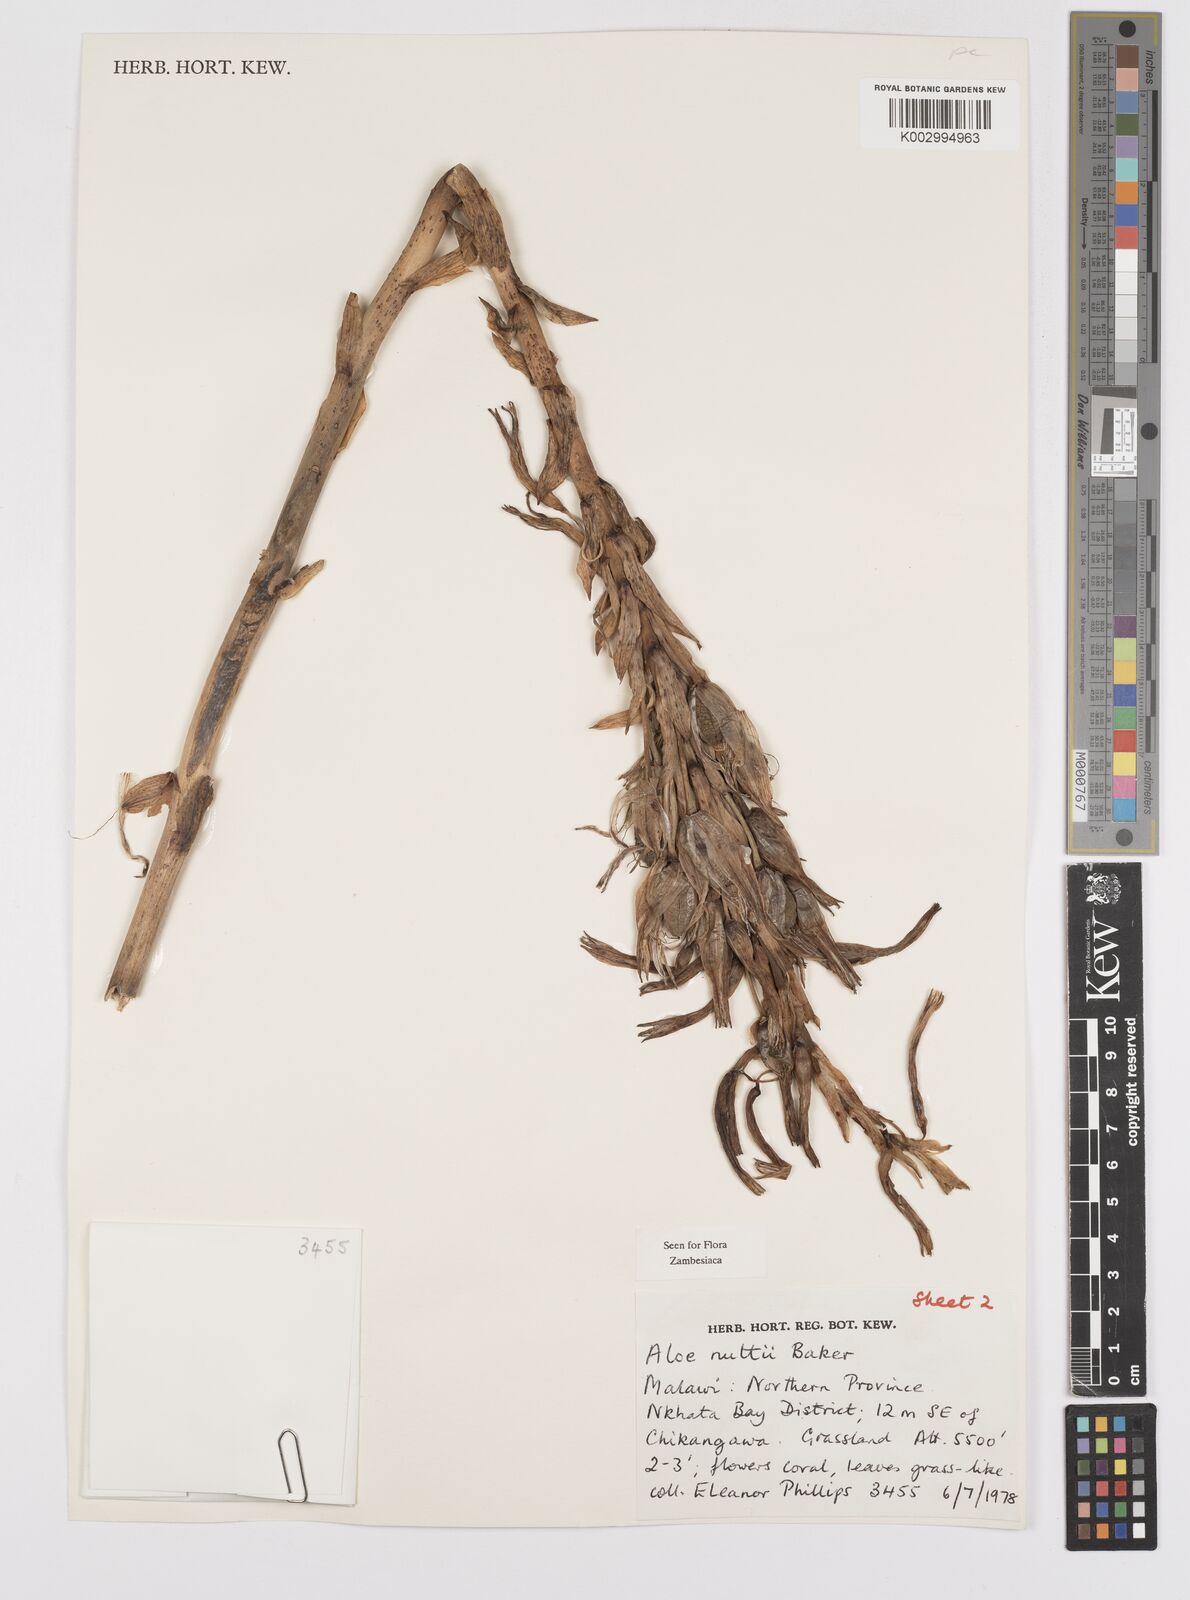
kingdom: Plantae
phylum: Tracheophyta
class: Liliopsida
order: Asparagales
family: Asphodelaceae
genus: Aloe
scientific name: Aloe nuttii
